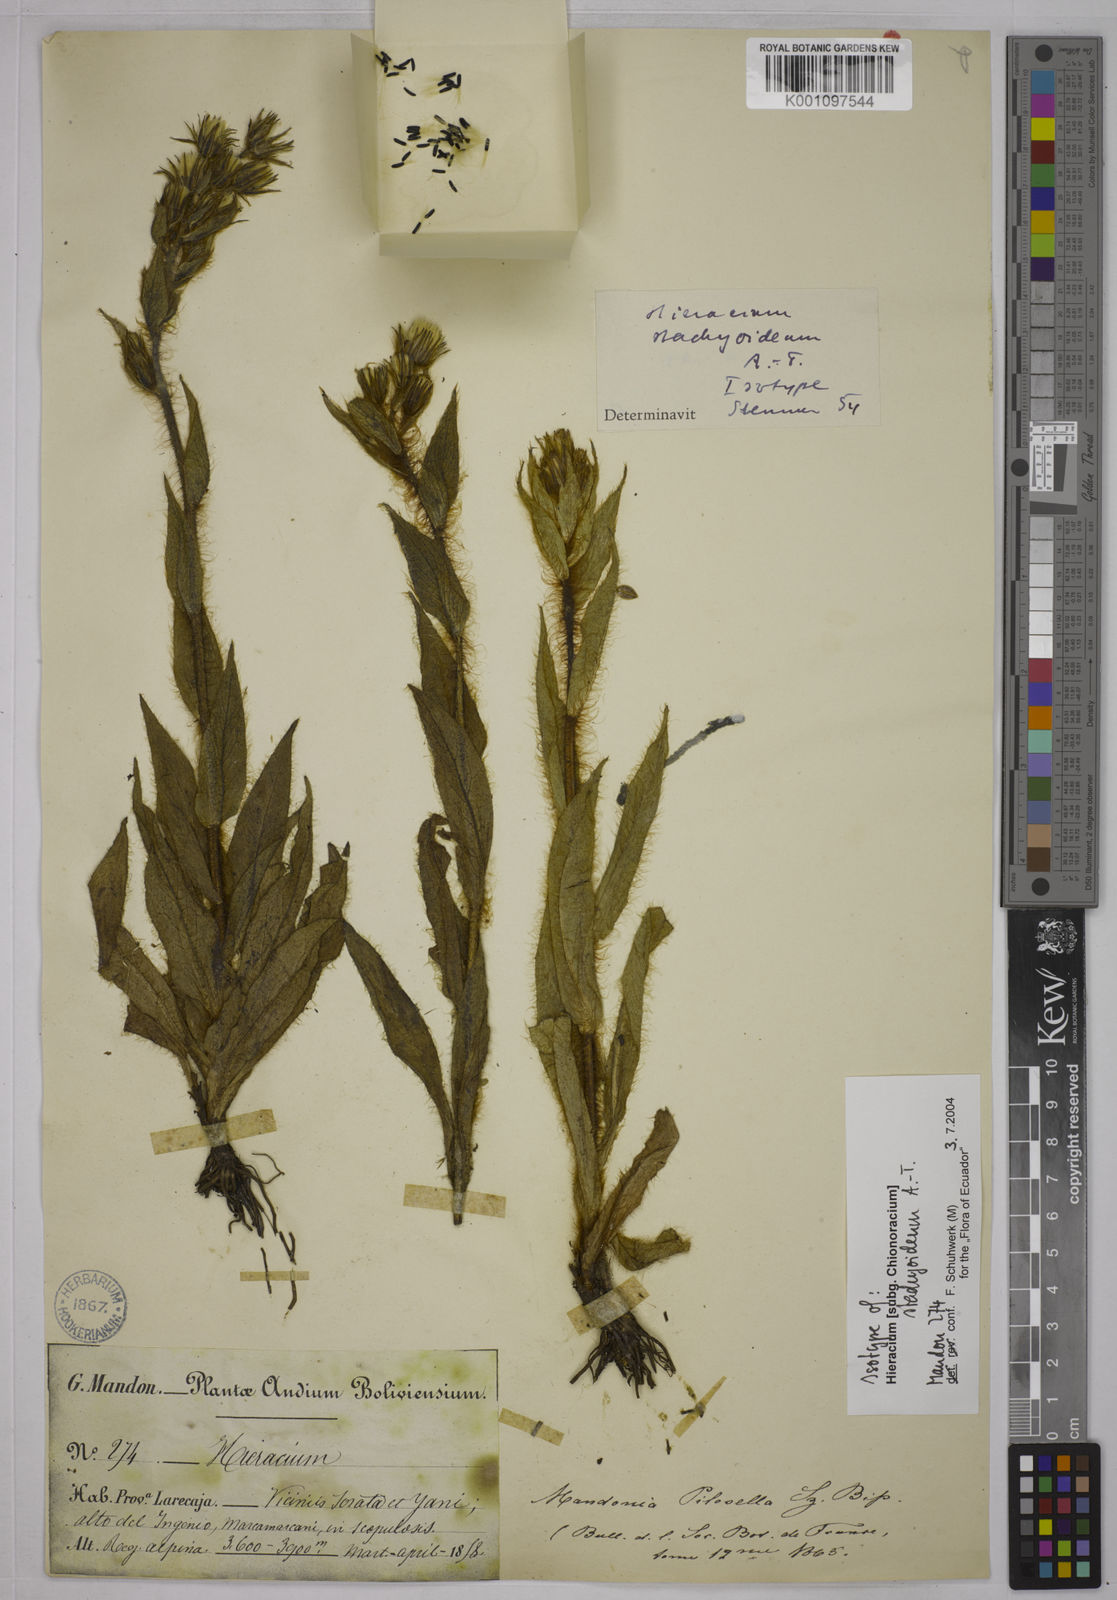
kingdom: Plantae
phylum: Tracheophyta
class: Magnoliopsida
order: Asterales
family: Asteraceae
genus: Hieracium
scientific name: Hieracium stachyoideum
